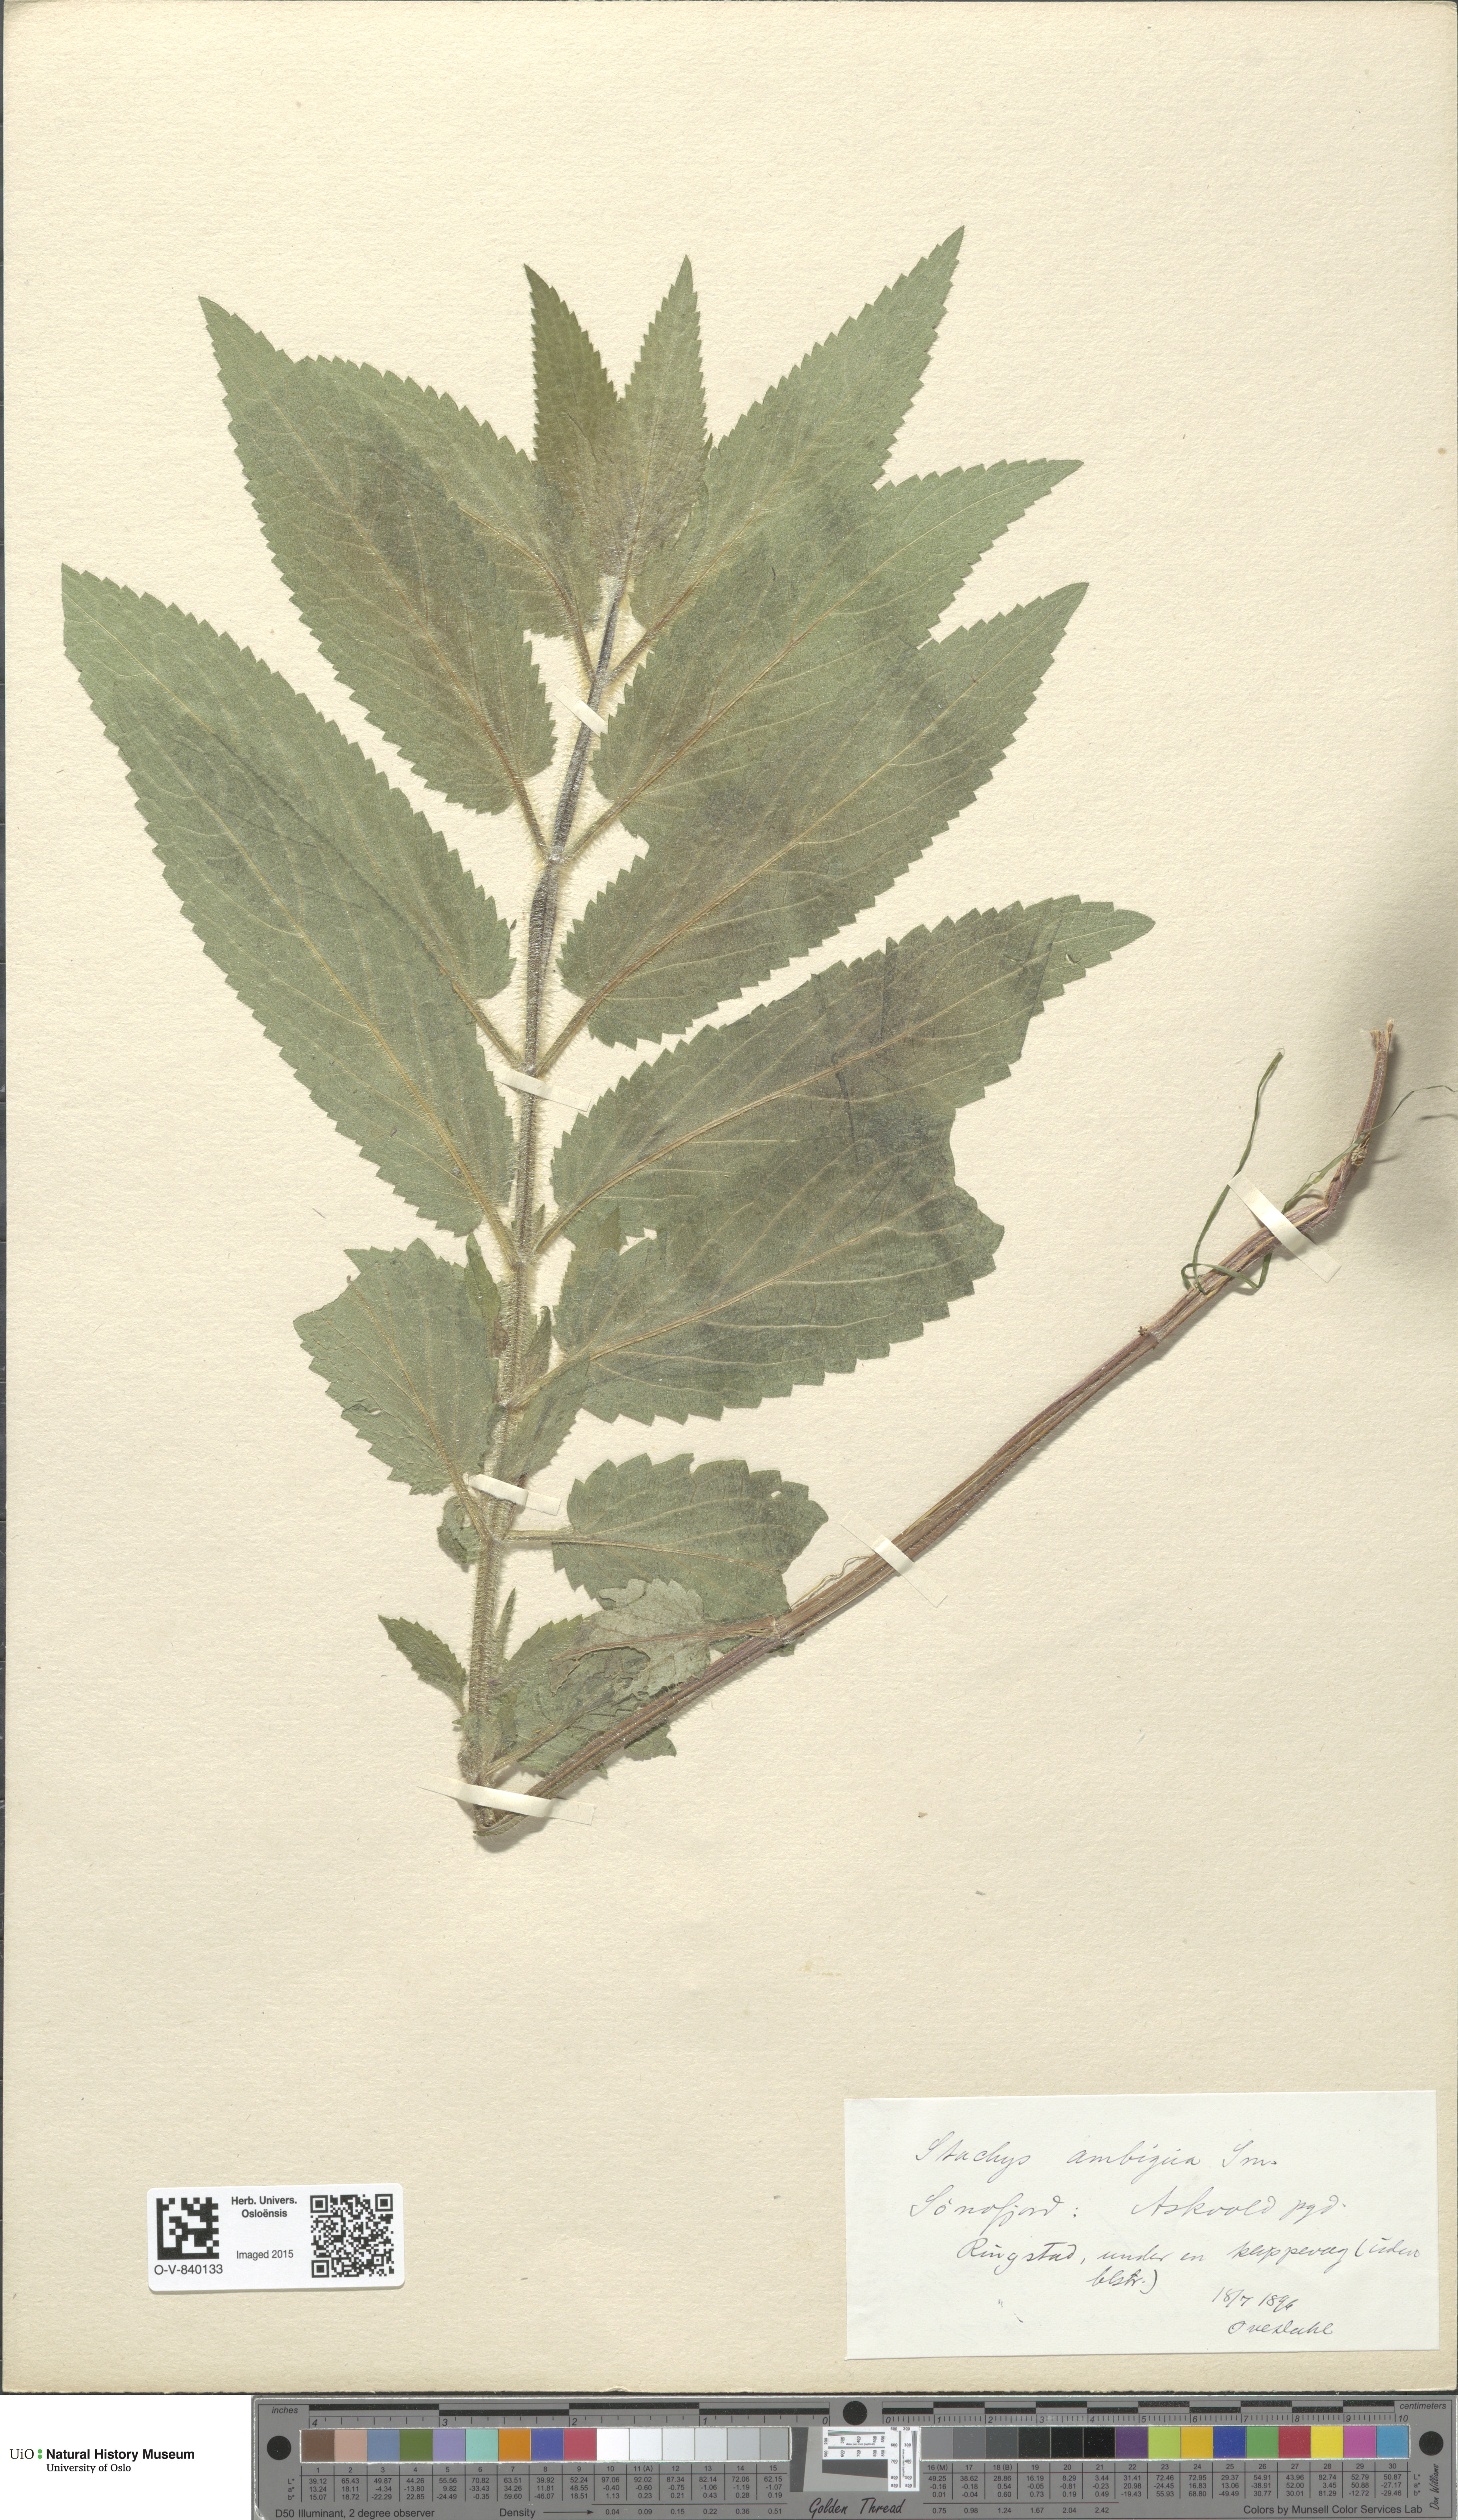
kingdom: Plantae
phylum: Tracheophyta
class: Magnoliopsida
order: Lamiales
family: Lamiaceae
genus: Stachys
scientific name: Stachys ambigua
